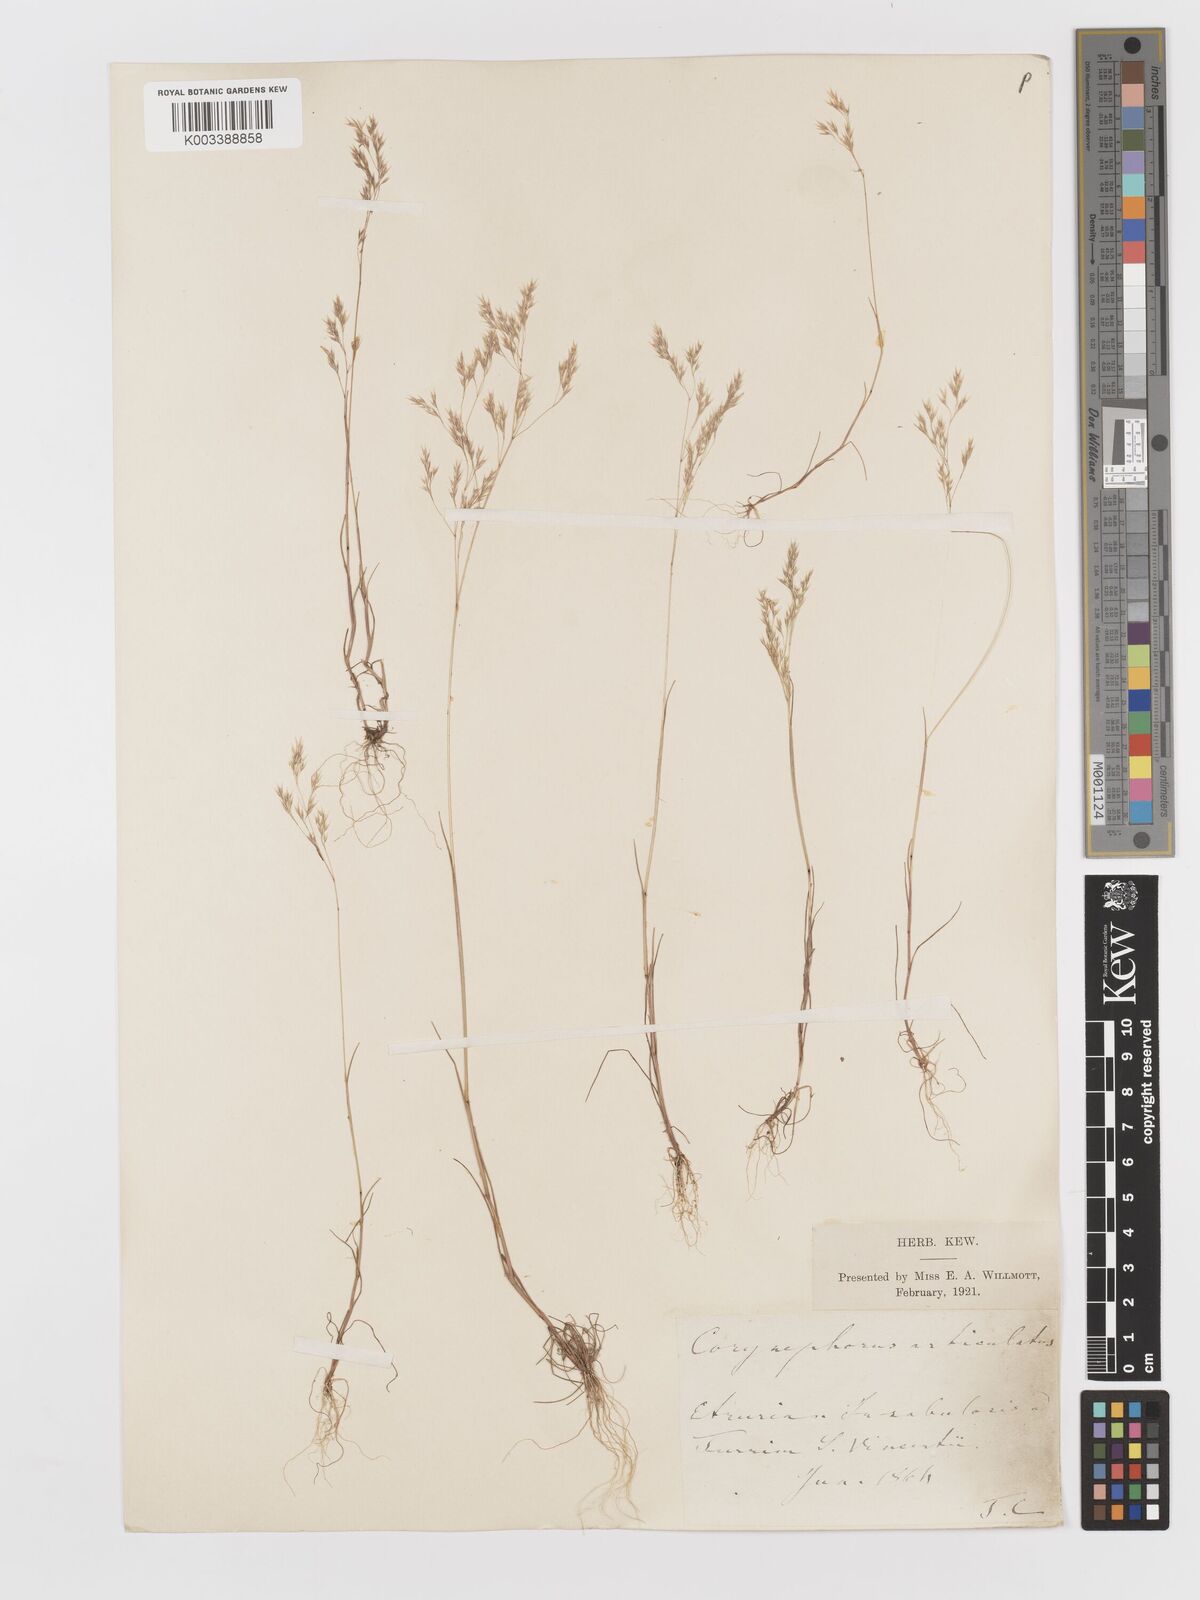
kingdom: Plantae
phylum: Tracheophyta
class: Liliopsida
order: Poales
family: Poaceae
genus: Corynephorus
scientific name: Corynephorus divaricatus
